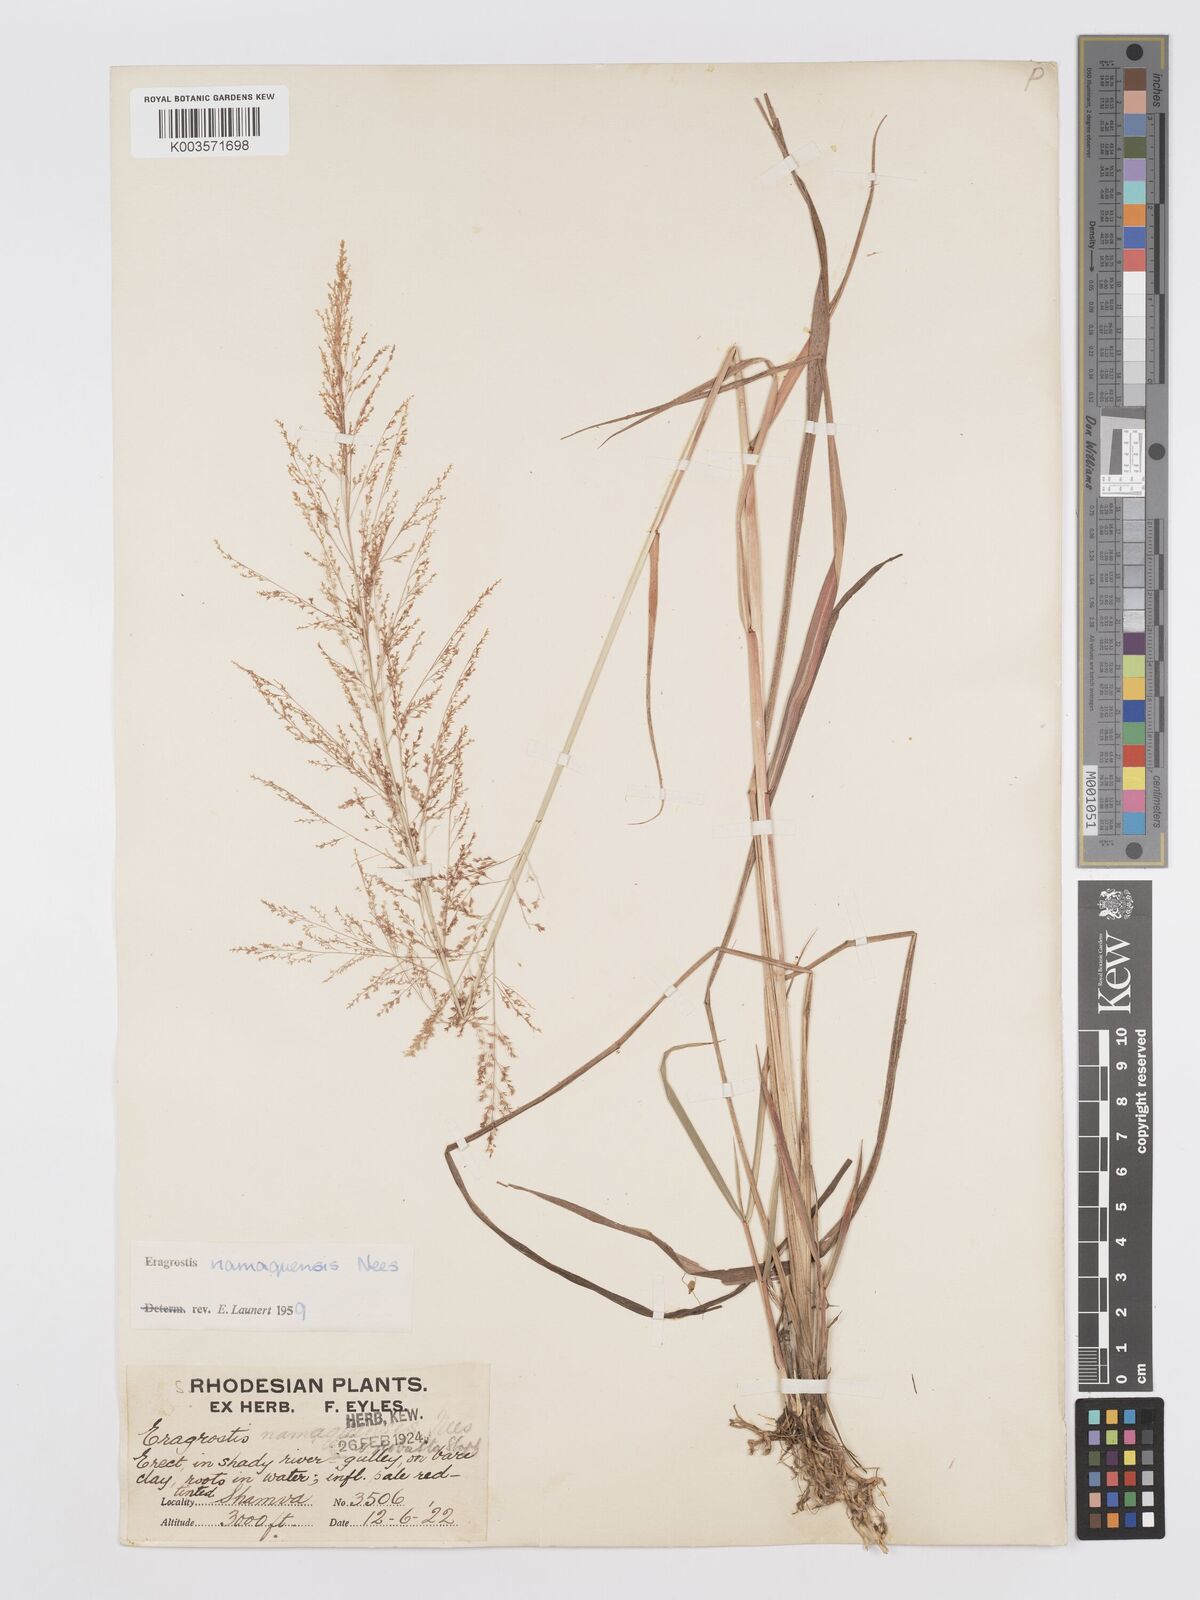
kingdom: Plantae
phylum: Tracheophyta
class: Liliopsida
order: Poales
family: Poaceae
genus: Eragrostis
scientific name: Eragrostis japonica
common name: Pond lovegrass
